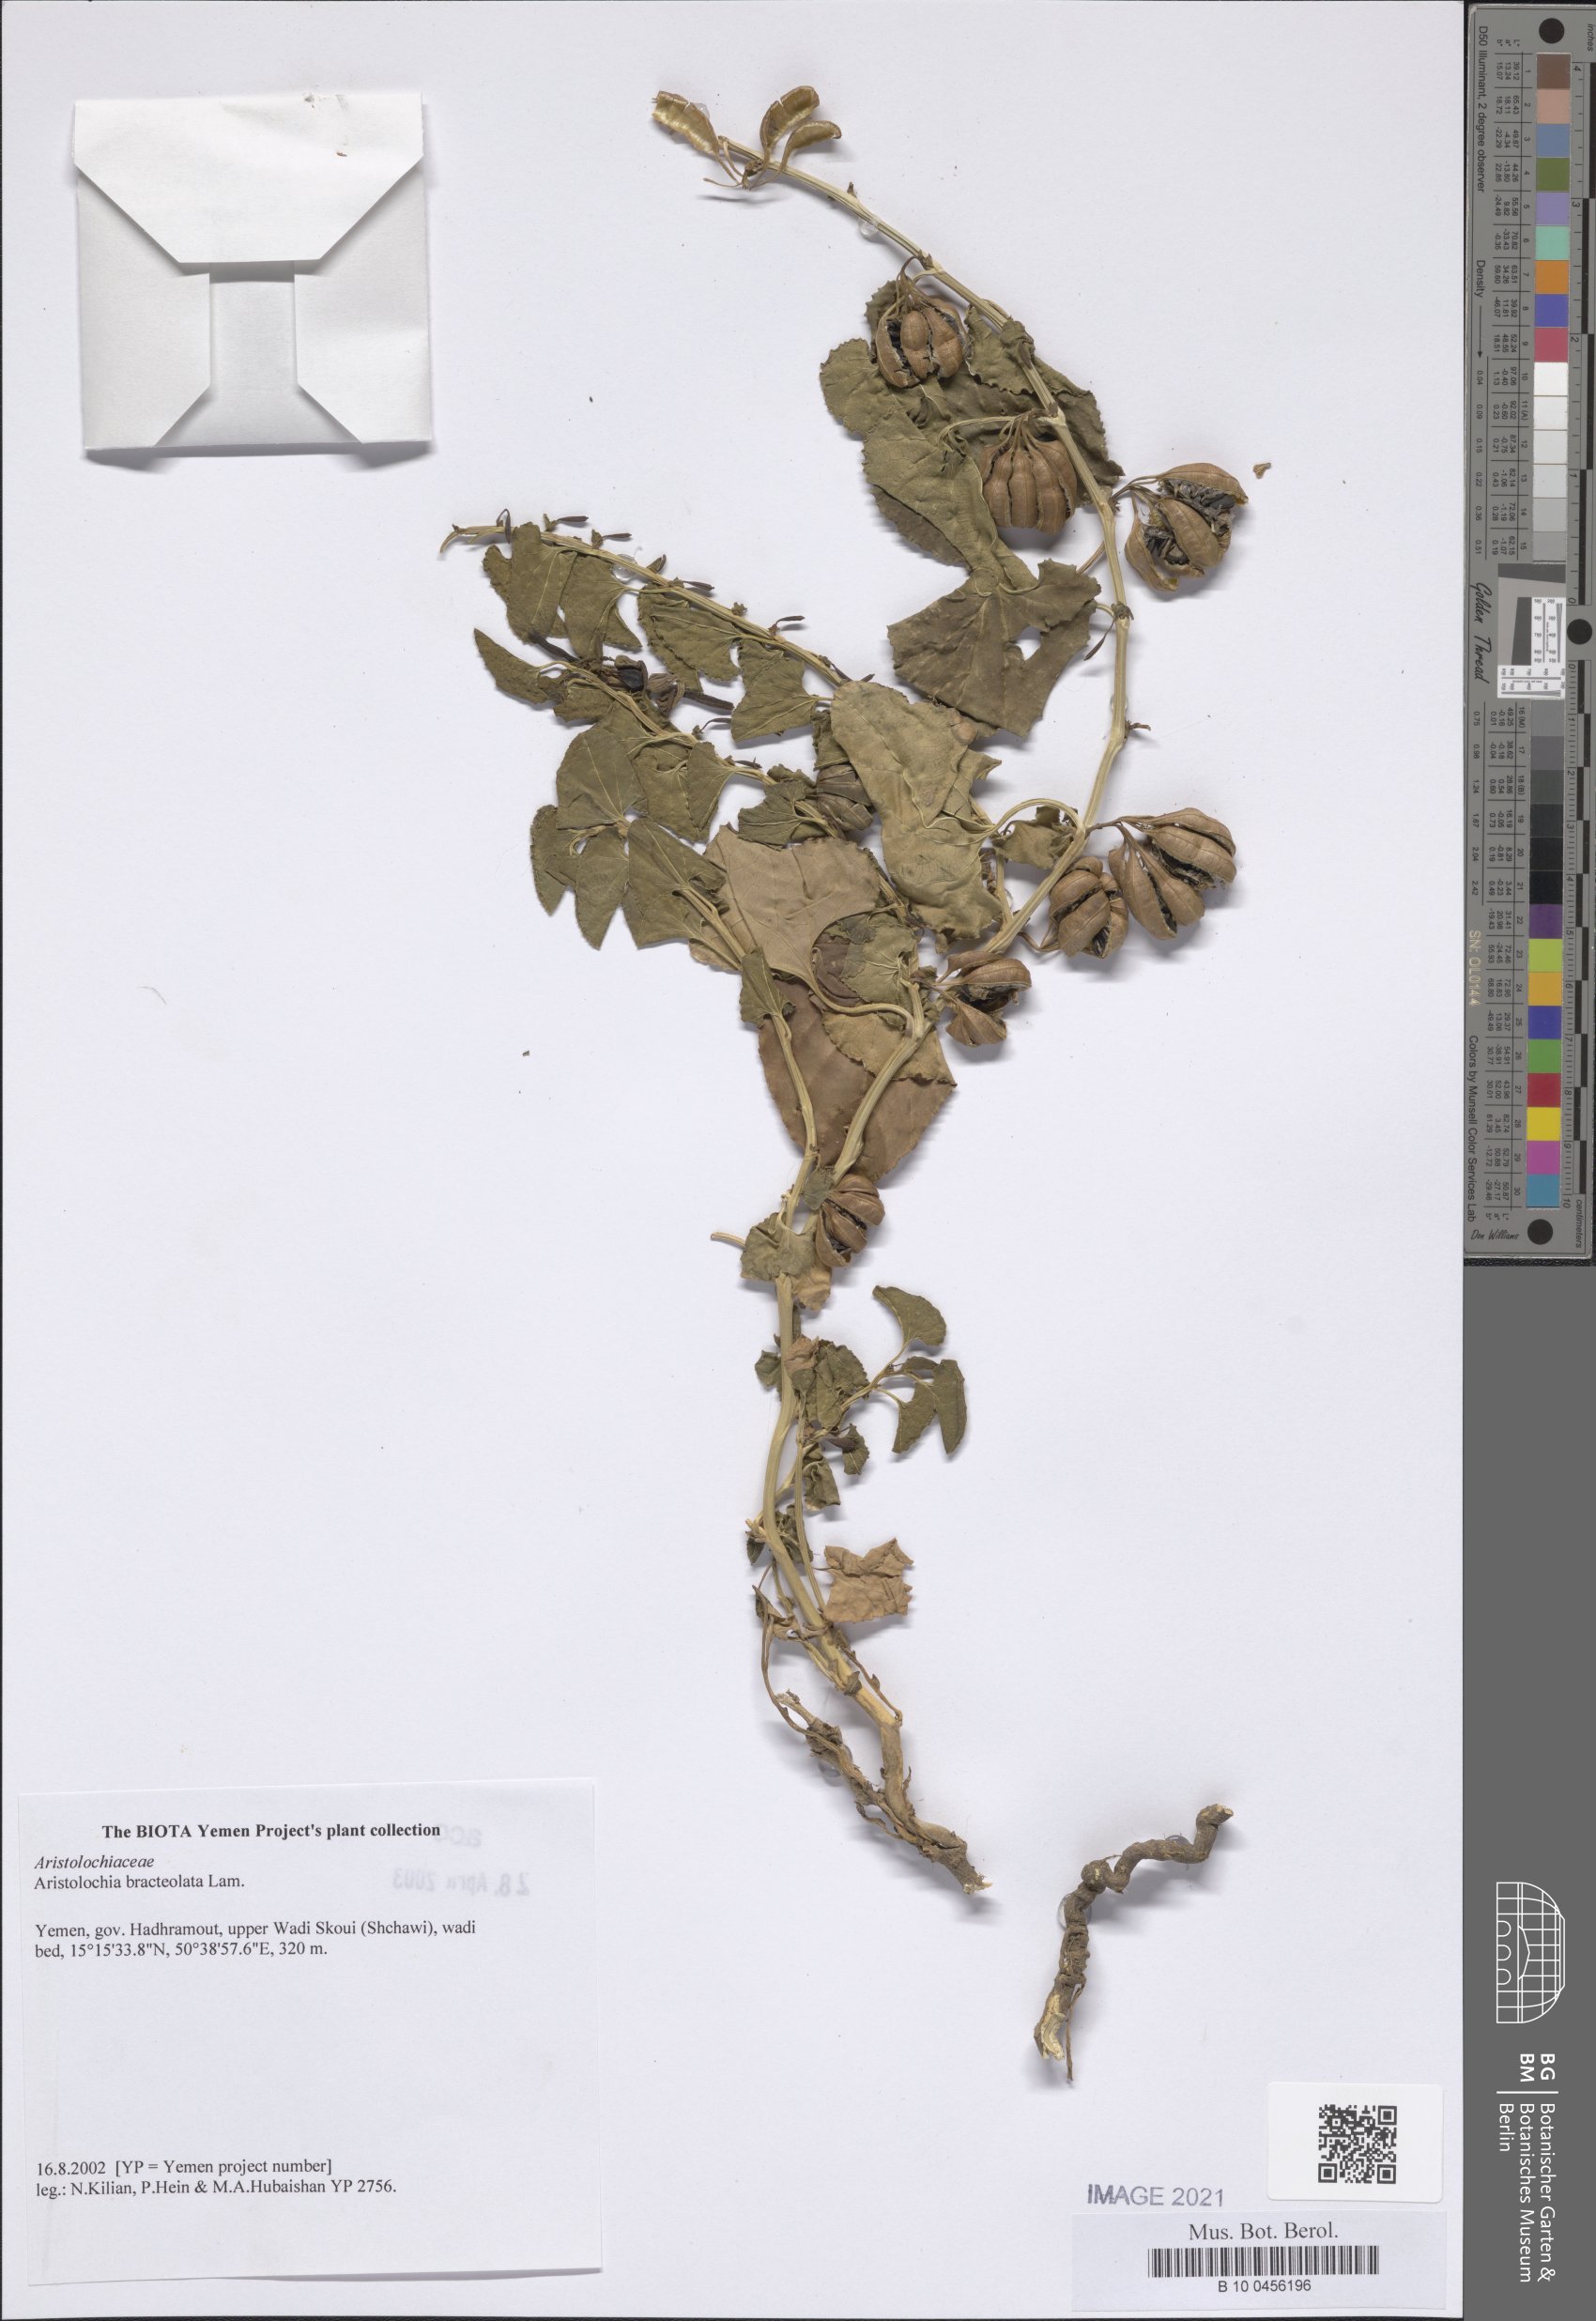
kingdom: Plantae
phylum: Tracheophyta
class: Magnoliopsida
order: Piperales
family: Aristolochiaceae
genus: Aristolochia
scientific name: Aristolochia bracteolata
